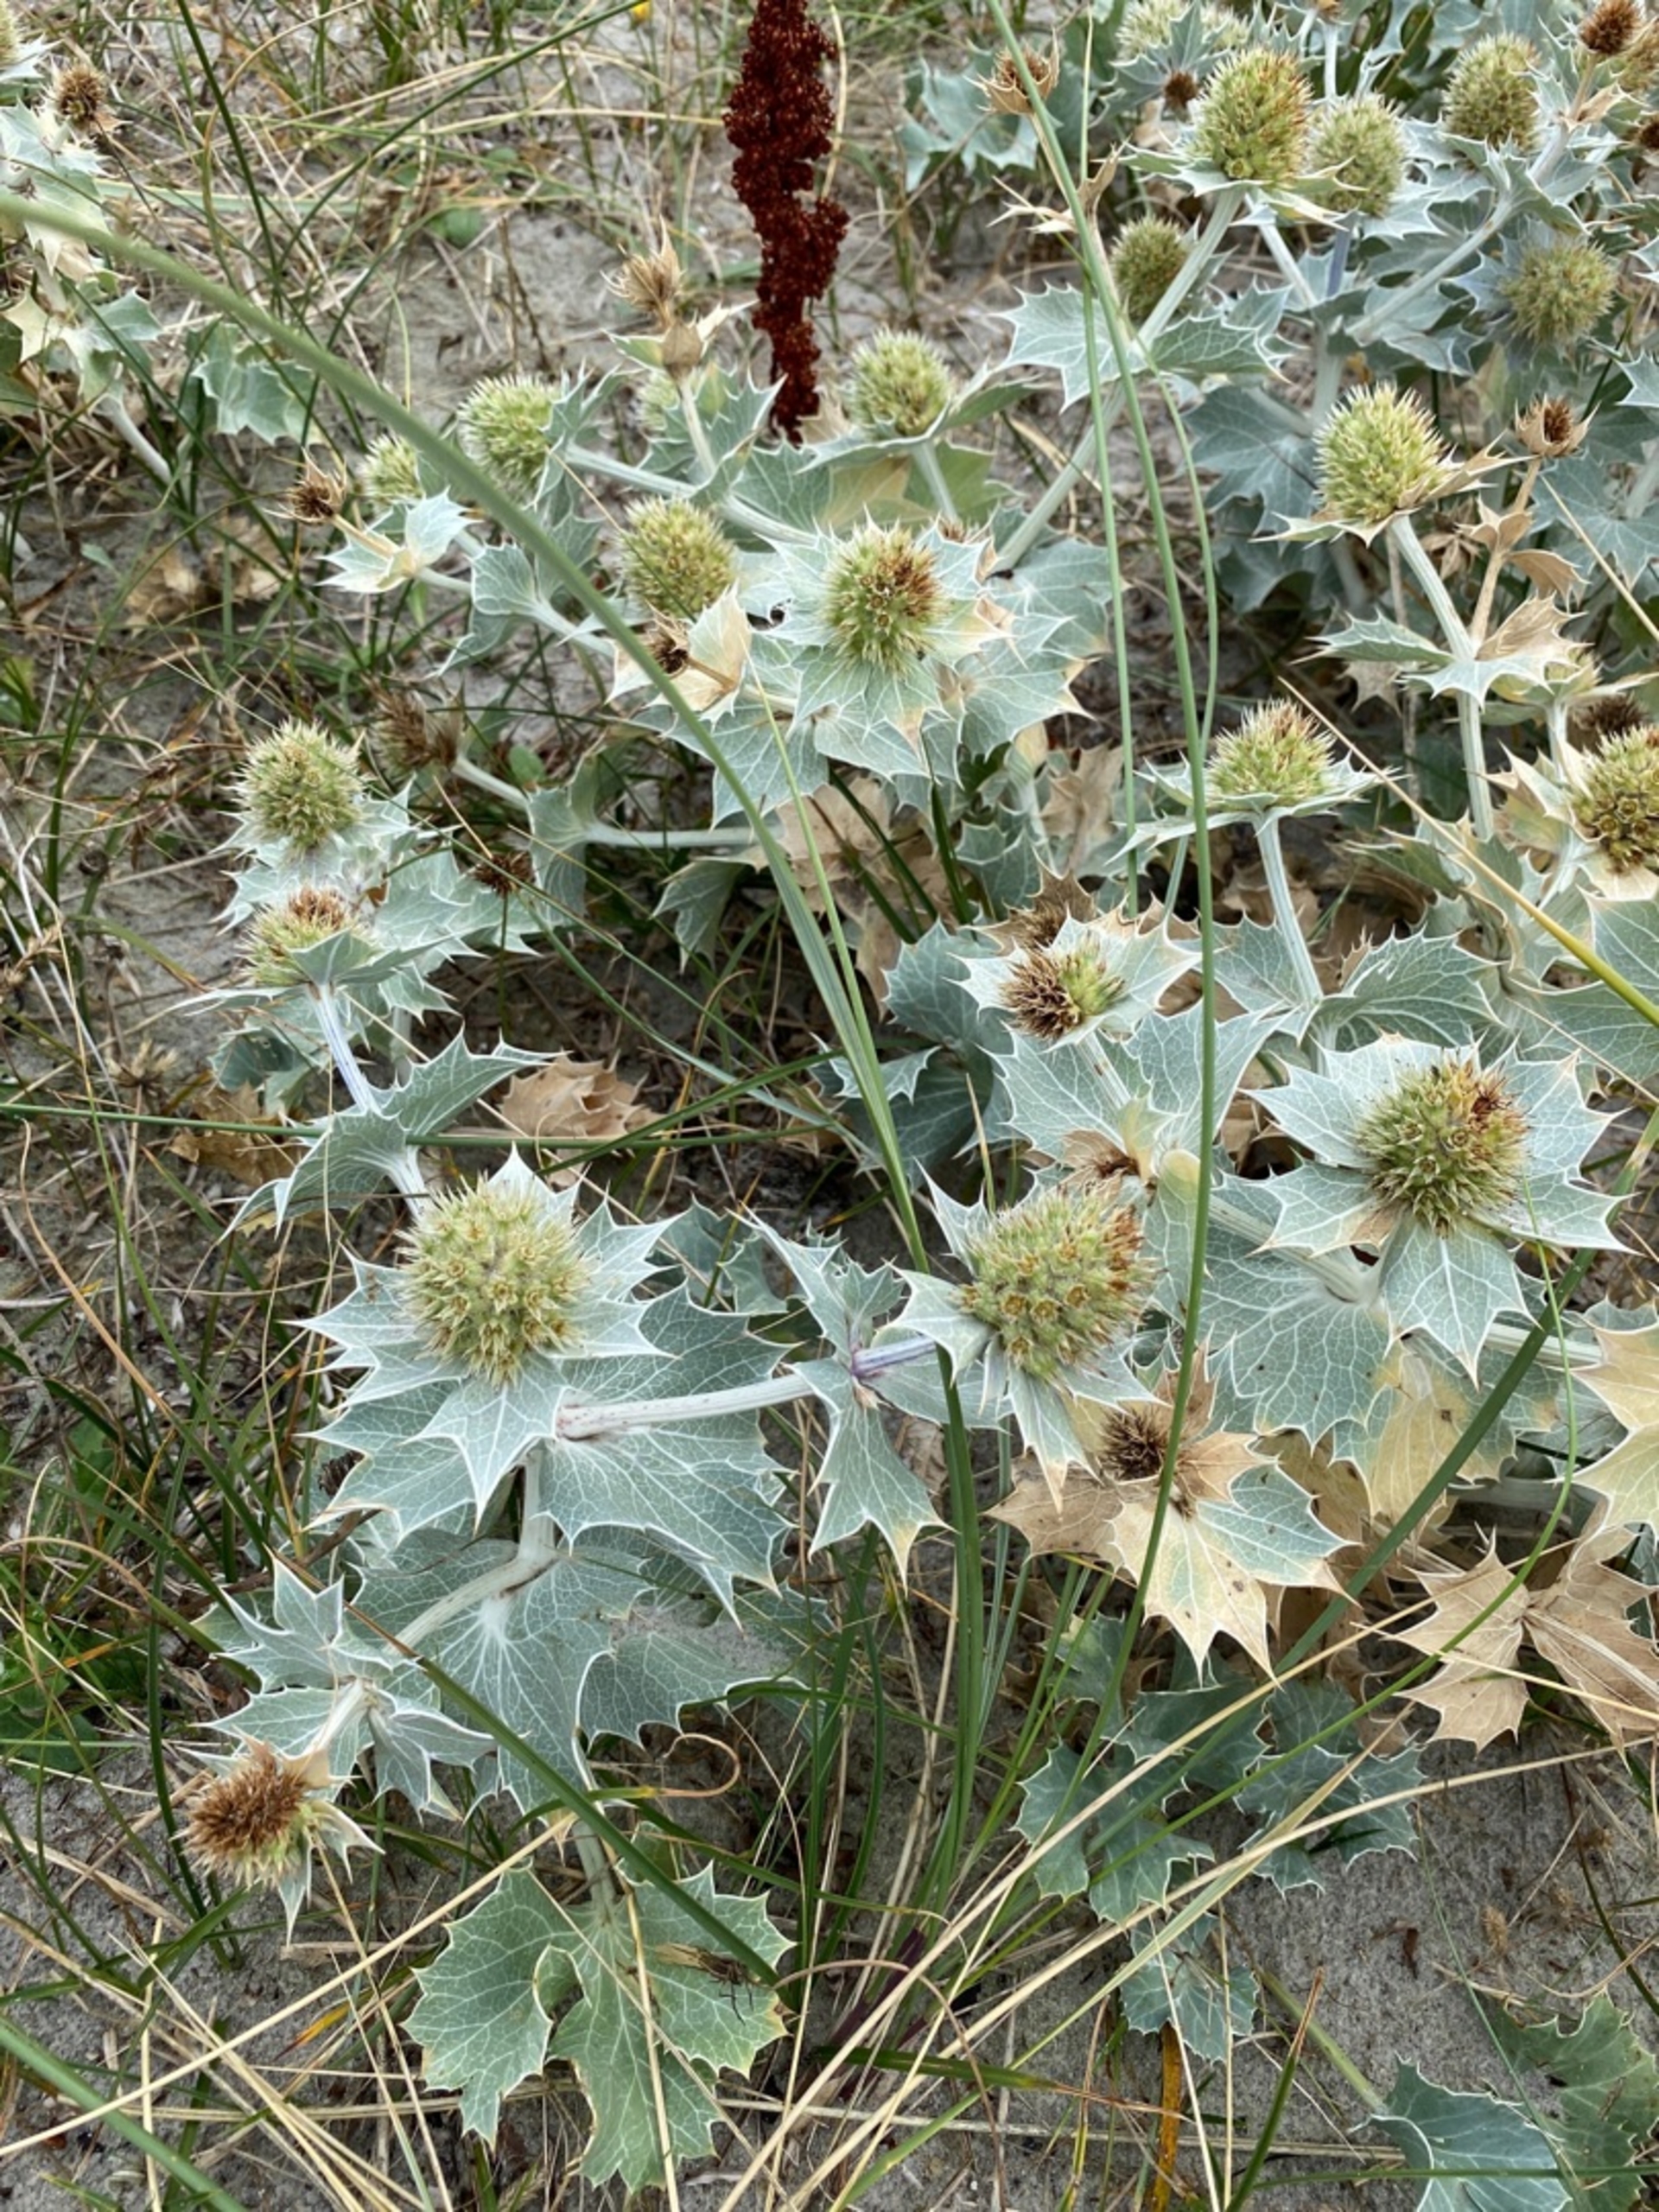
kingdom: Plantae
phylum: Tracheophyta
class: Magnoliopsida
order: Apiales
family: Apiaceae
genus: Eryngium
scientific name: Eryngium maritimum
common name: Strand-mandstro
